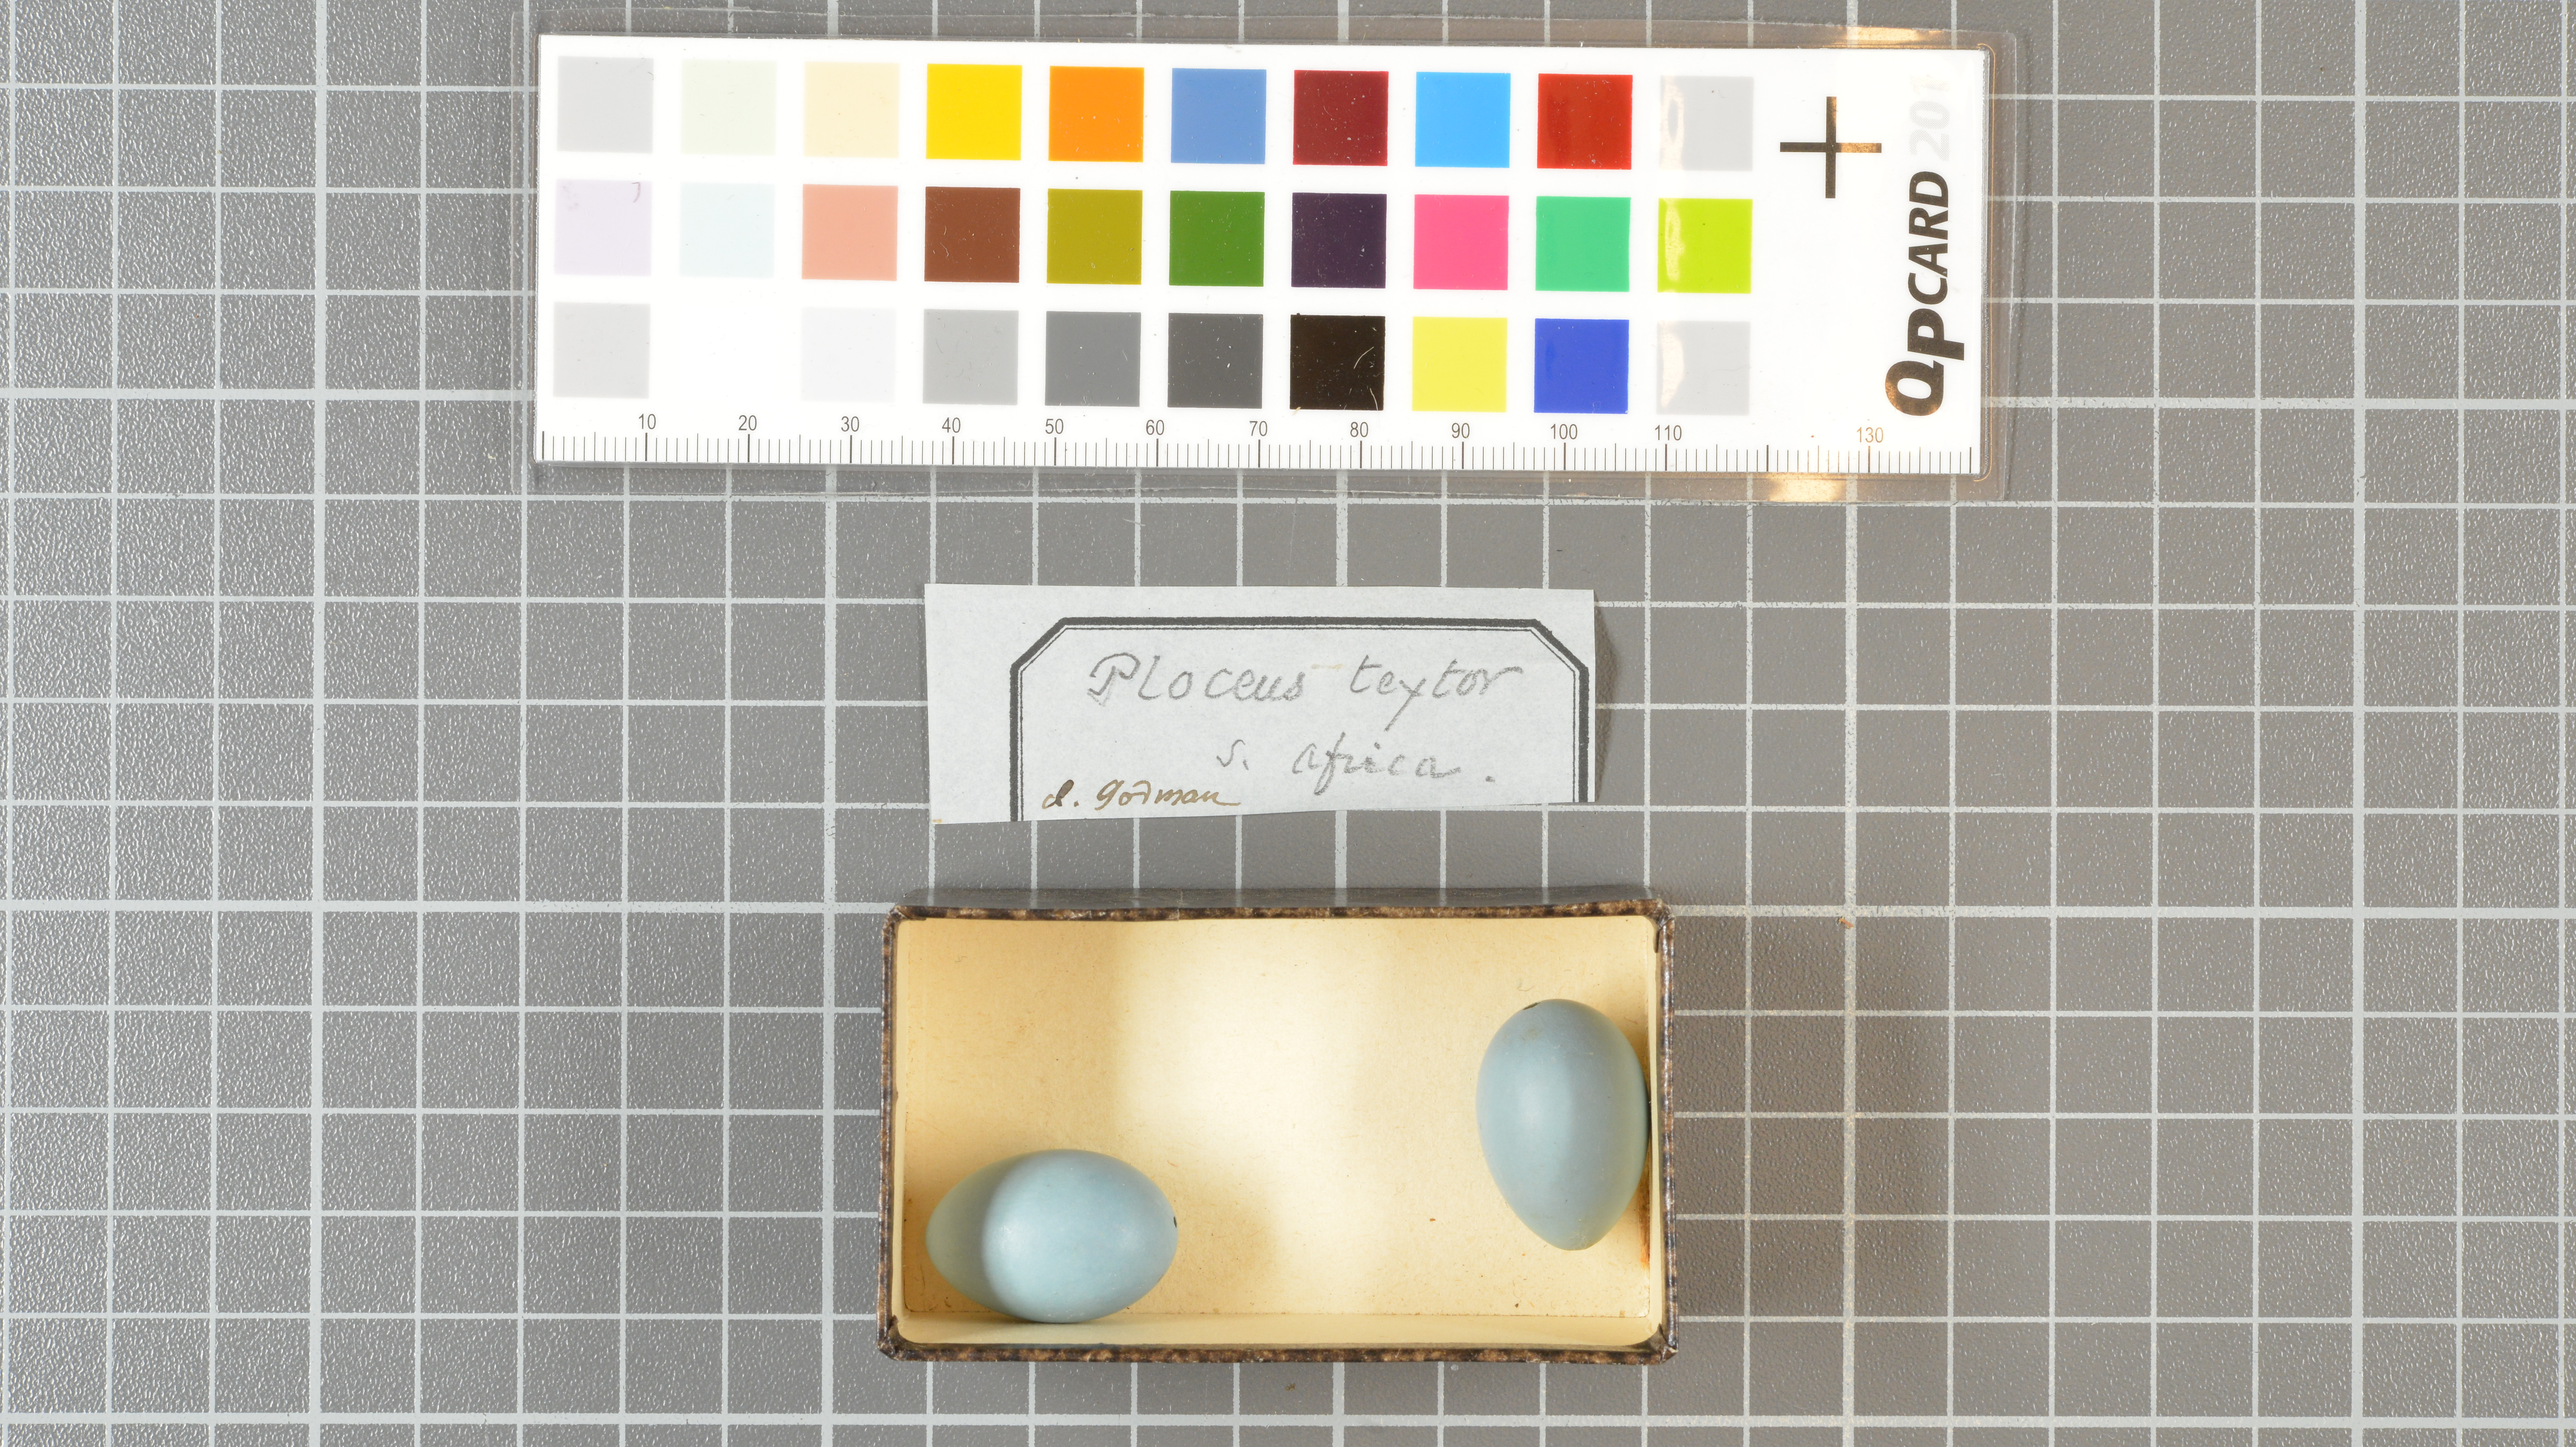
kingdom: Animalia
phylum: Chordata
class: Aves
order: Passeriformes
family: Ploceidae
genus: Ploceus
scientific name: Ploceus
